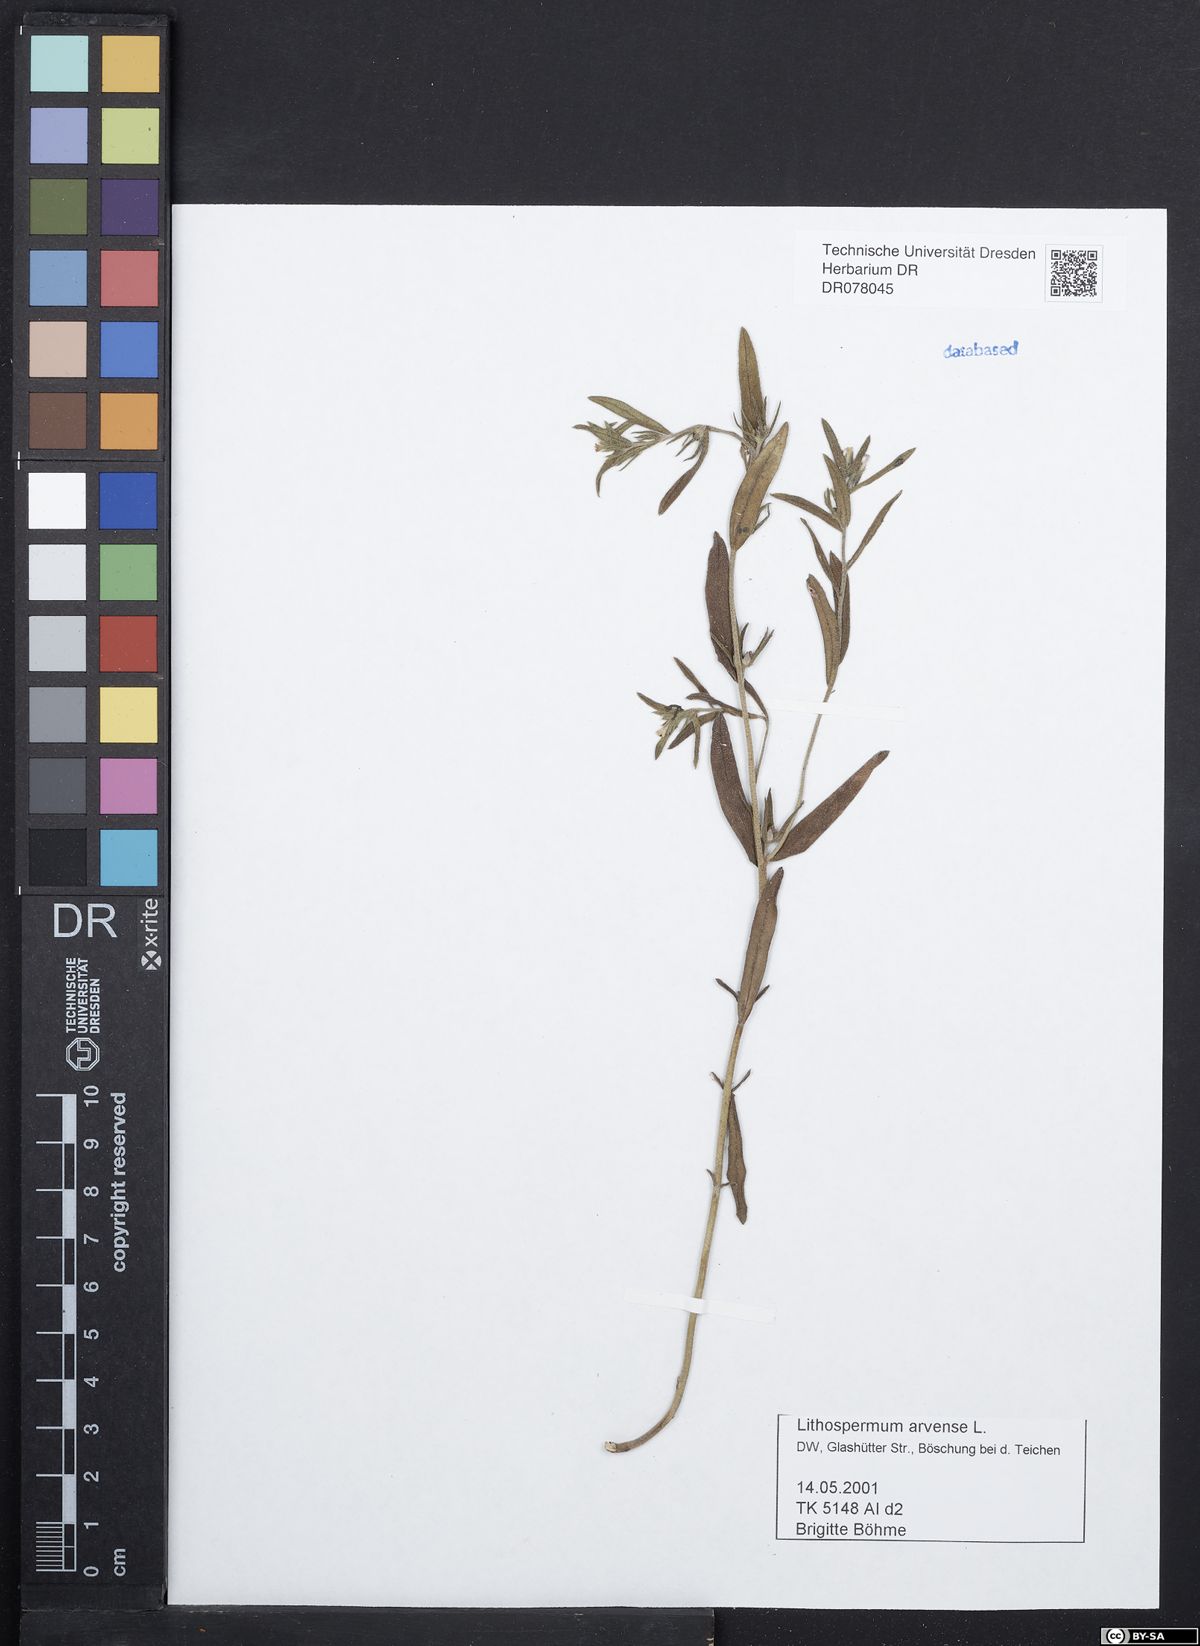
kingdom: Plantae
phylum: Tracheophyta
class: Magnoliopsida
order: Boraginales
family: Boraginaceae
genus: Buglossoides
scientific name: Buglossoides arvensis
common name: Corn gromwell
